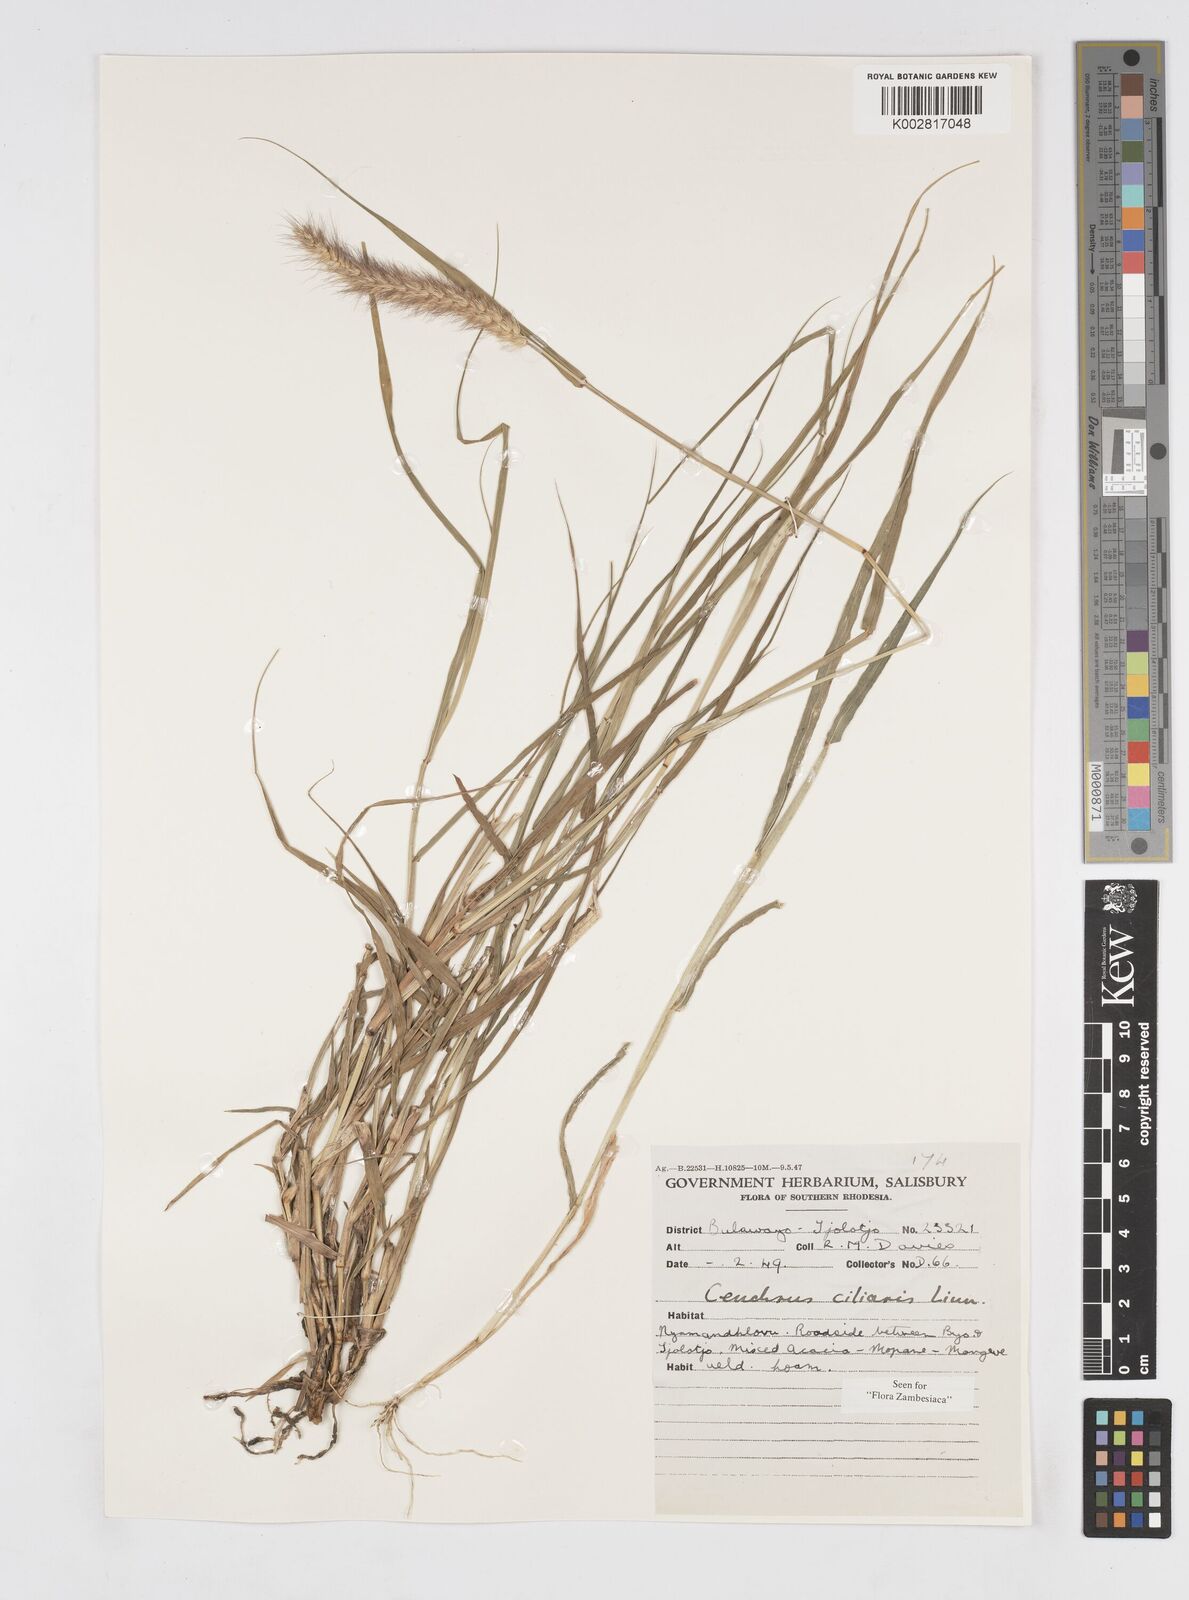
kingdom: Plantae
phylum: Tracheophyta
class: Liliopsida
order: Poales
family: Poaceae
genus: Cenchrus
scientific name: Cenchrus ciliaris
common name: Buffelgrass
